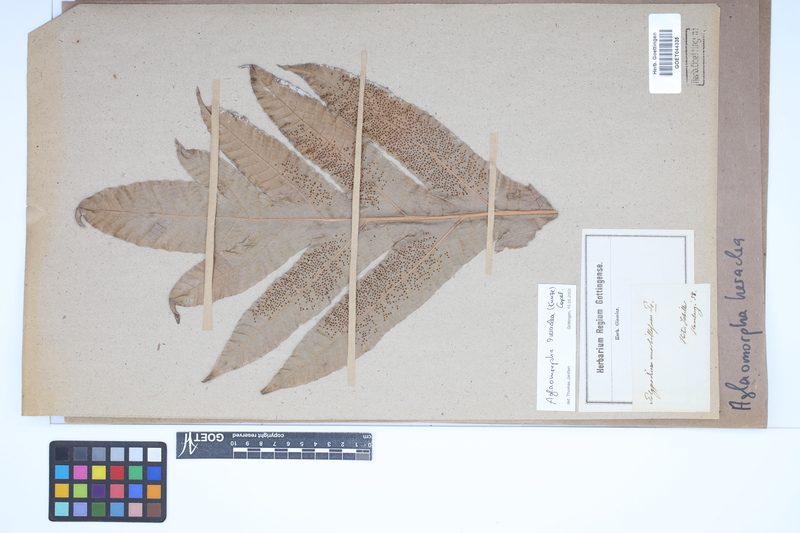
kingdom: Plantae
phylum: Tracheophyta
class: Polypodiopsida
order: Polypodiales
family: Polypodiaceae
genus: Drynaria
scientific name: Drynaria heraclea
